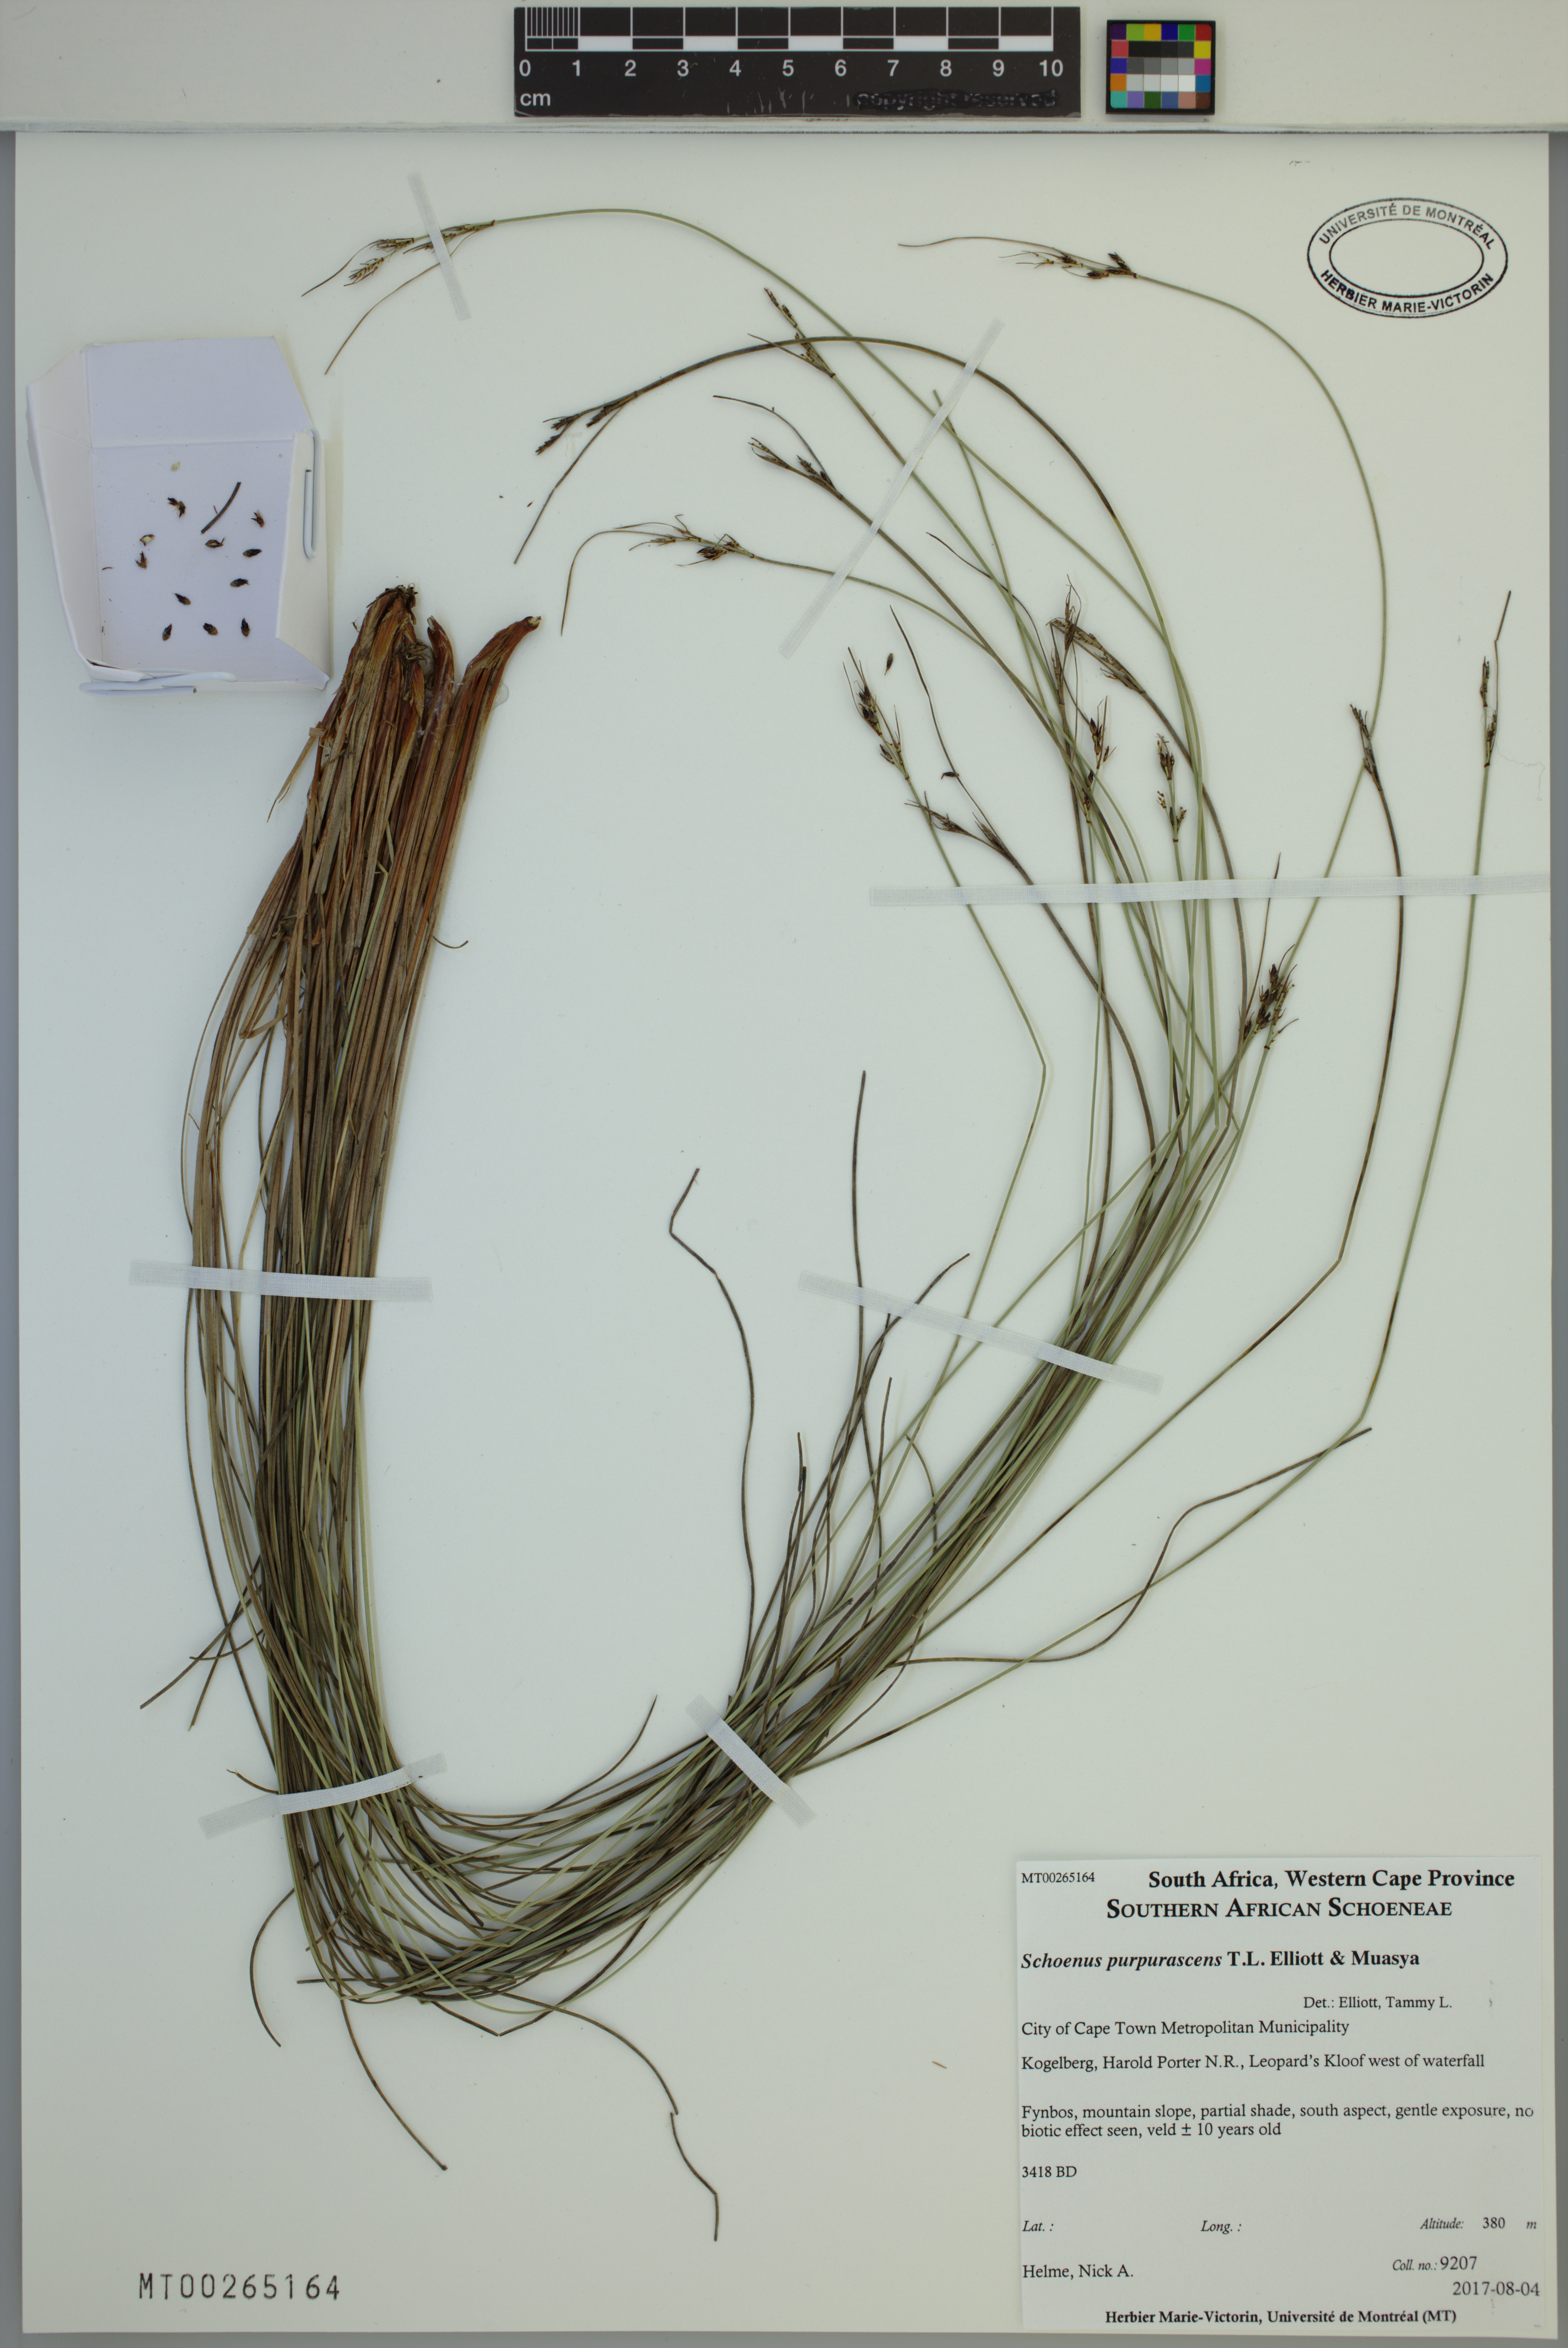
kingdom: Plantae
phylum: Tracheophyta
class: Liliopsida
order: Poales
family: Cyperaceae
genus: Schoenus
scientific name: Schoenus purpurascens
